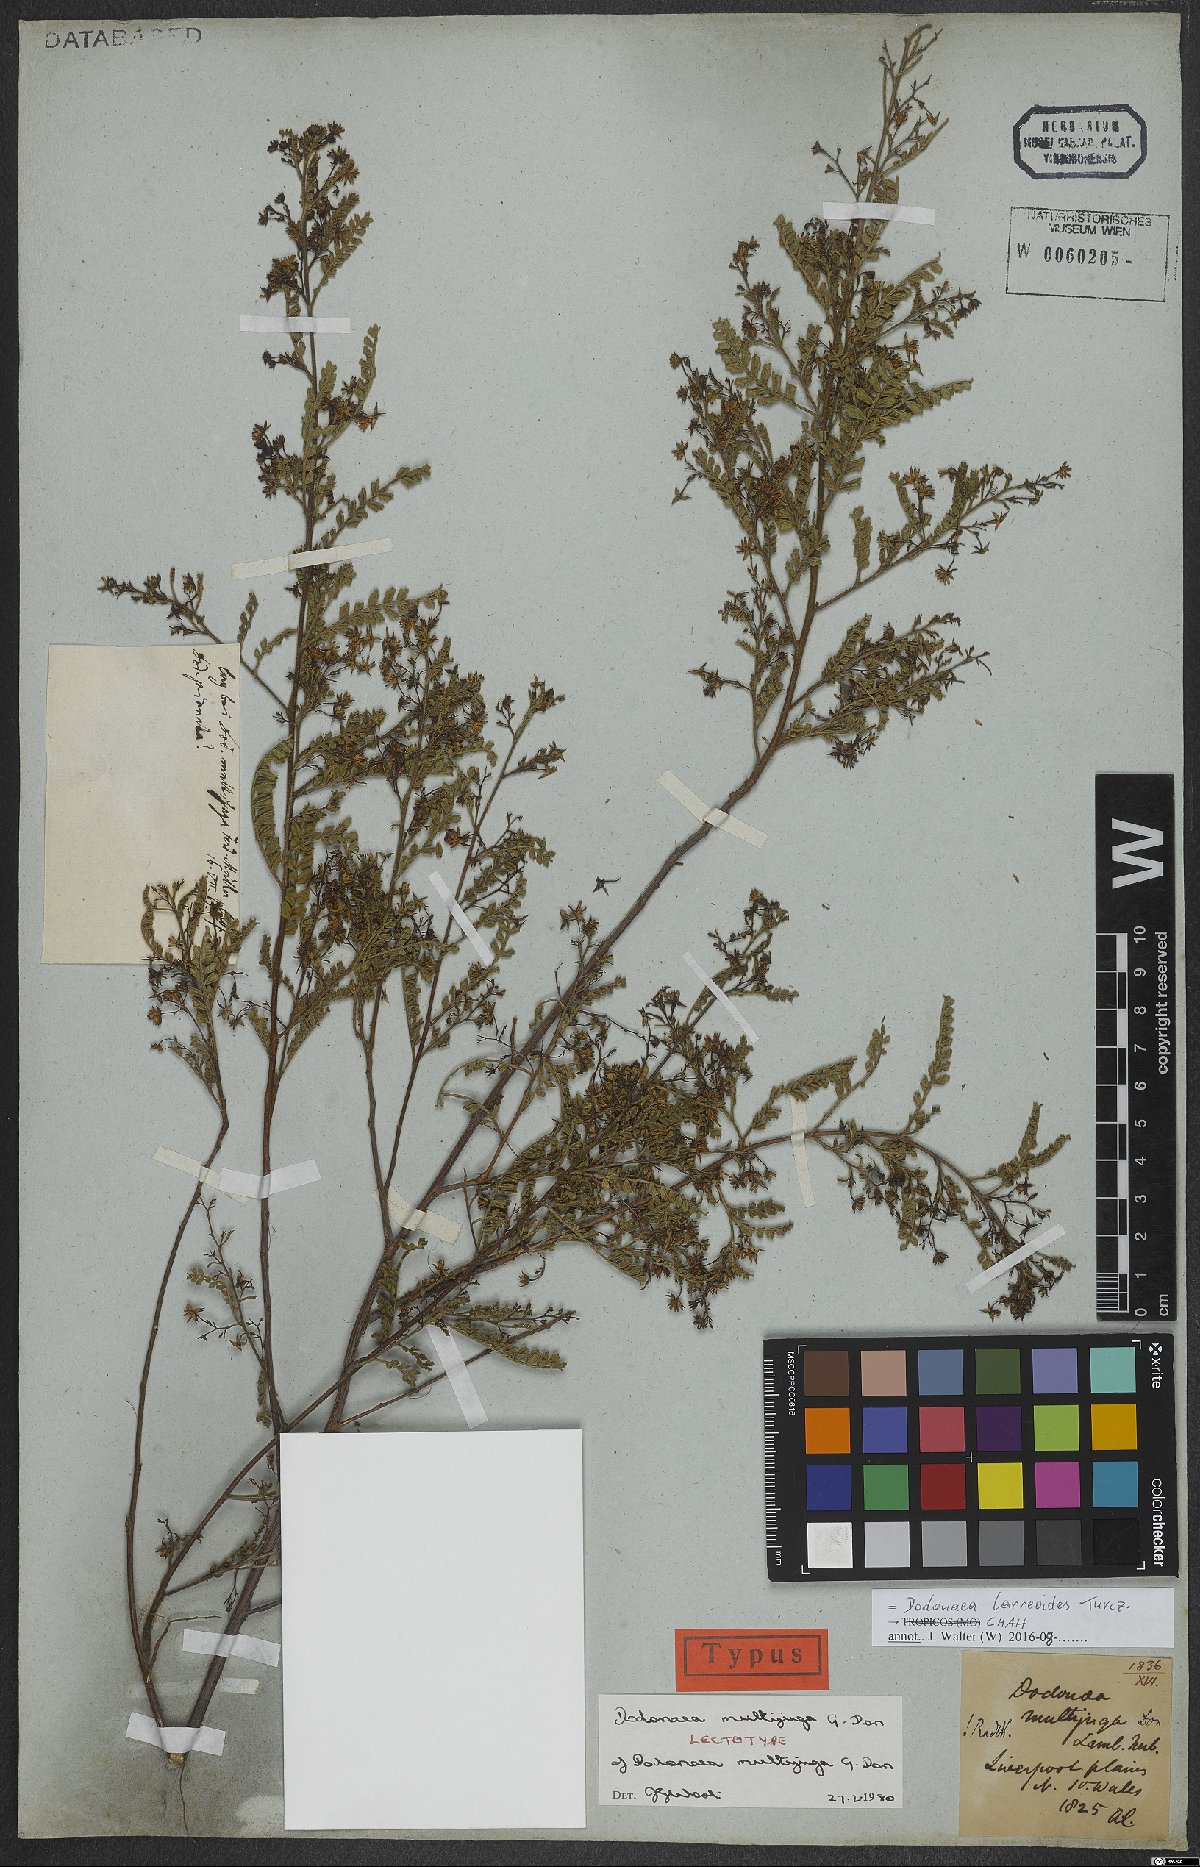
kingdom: Plantae
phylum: Tracheophyta
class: Magnoliopsida
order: Sapindales
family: Sapindaceae
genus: Dodonaea
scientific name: Dodonaea larreoides
